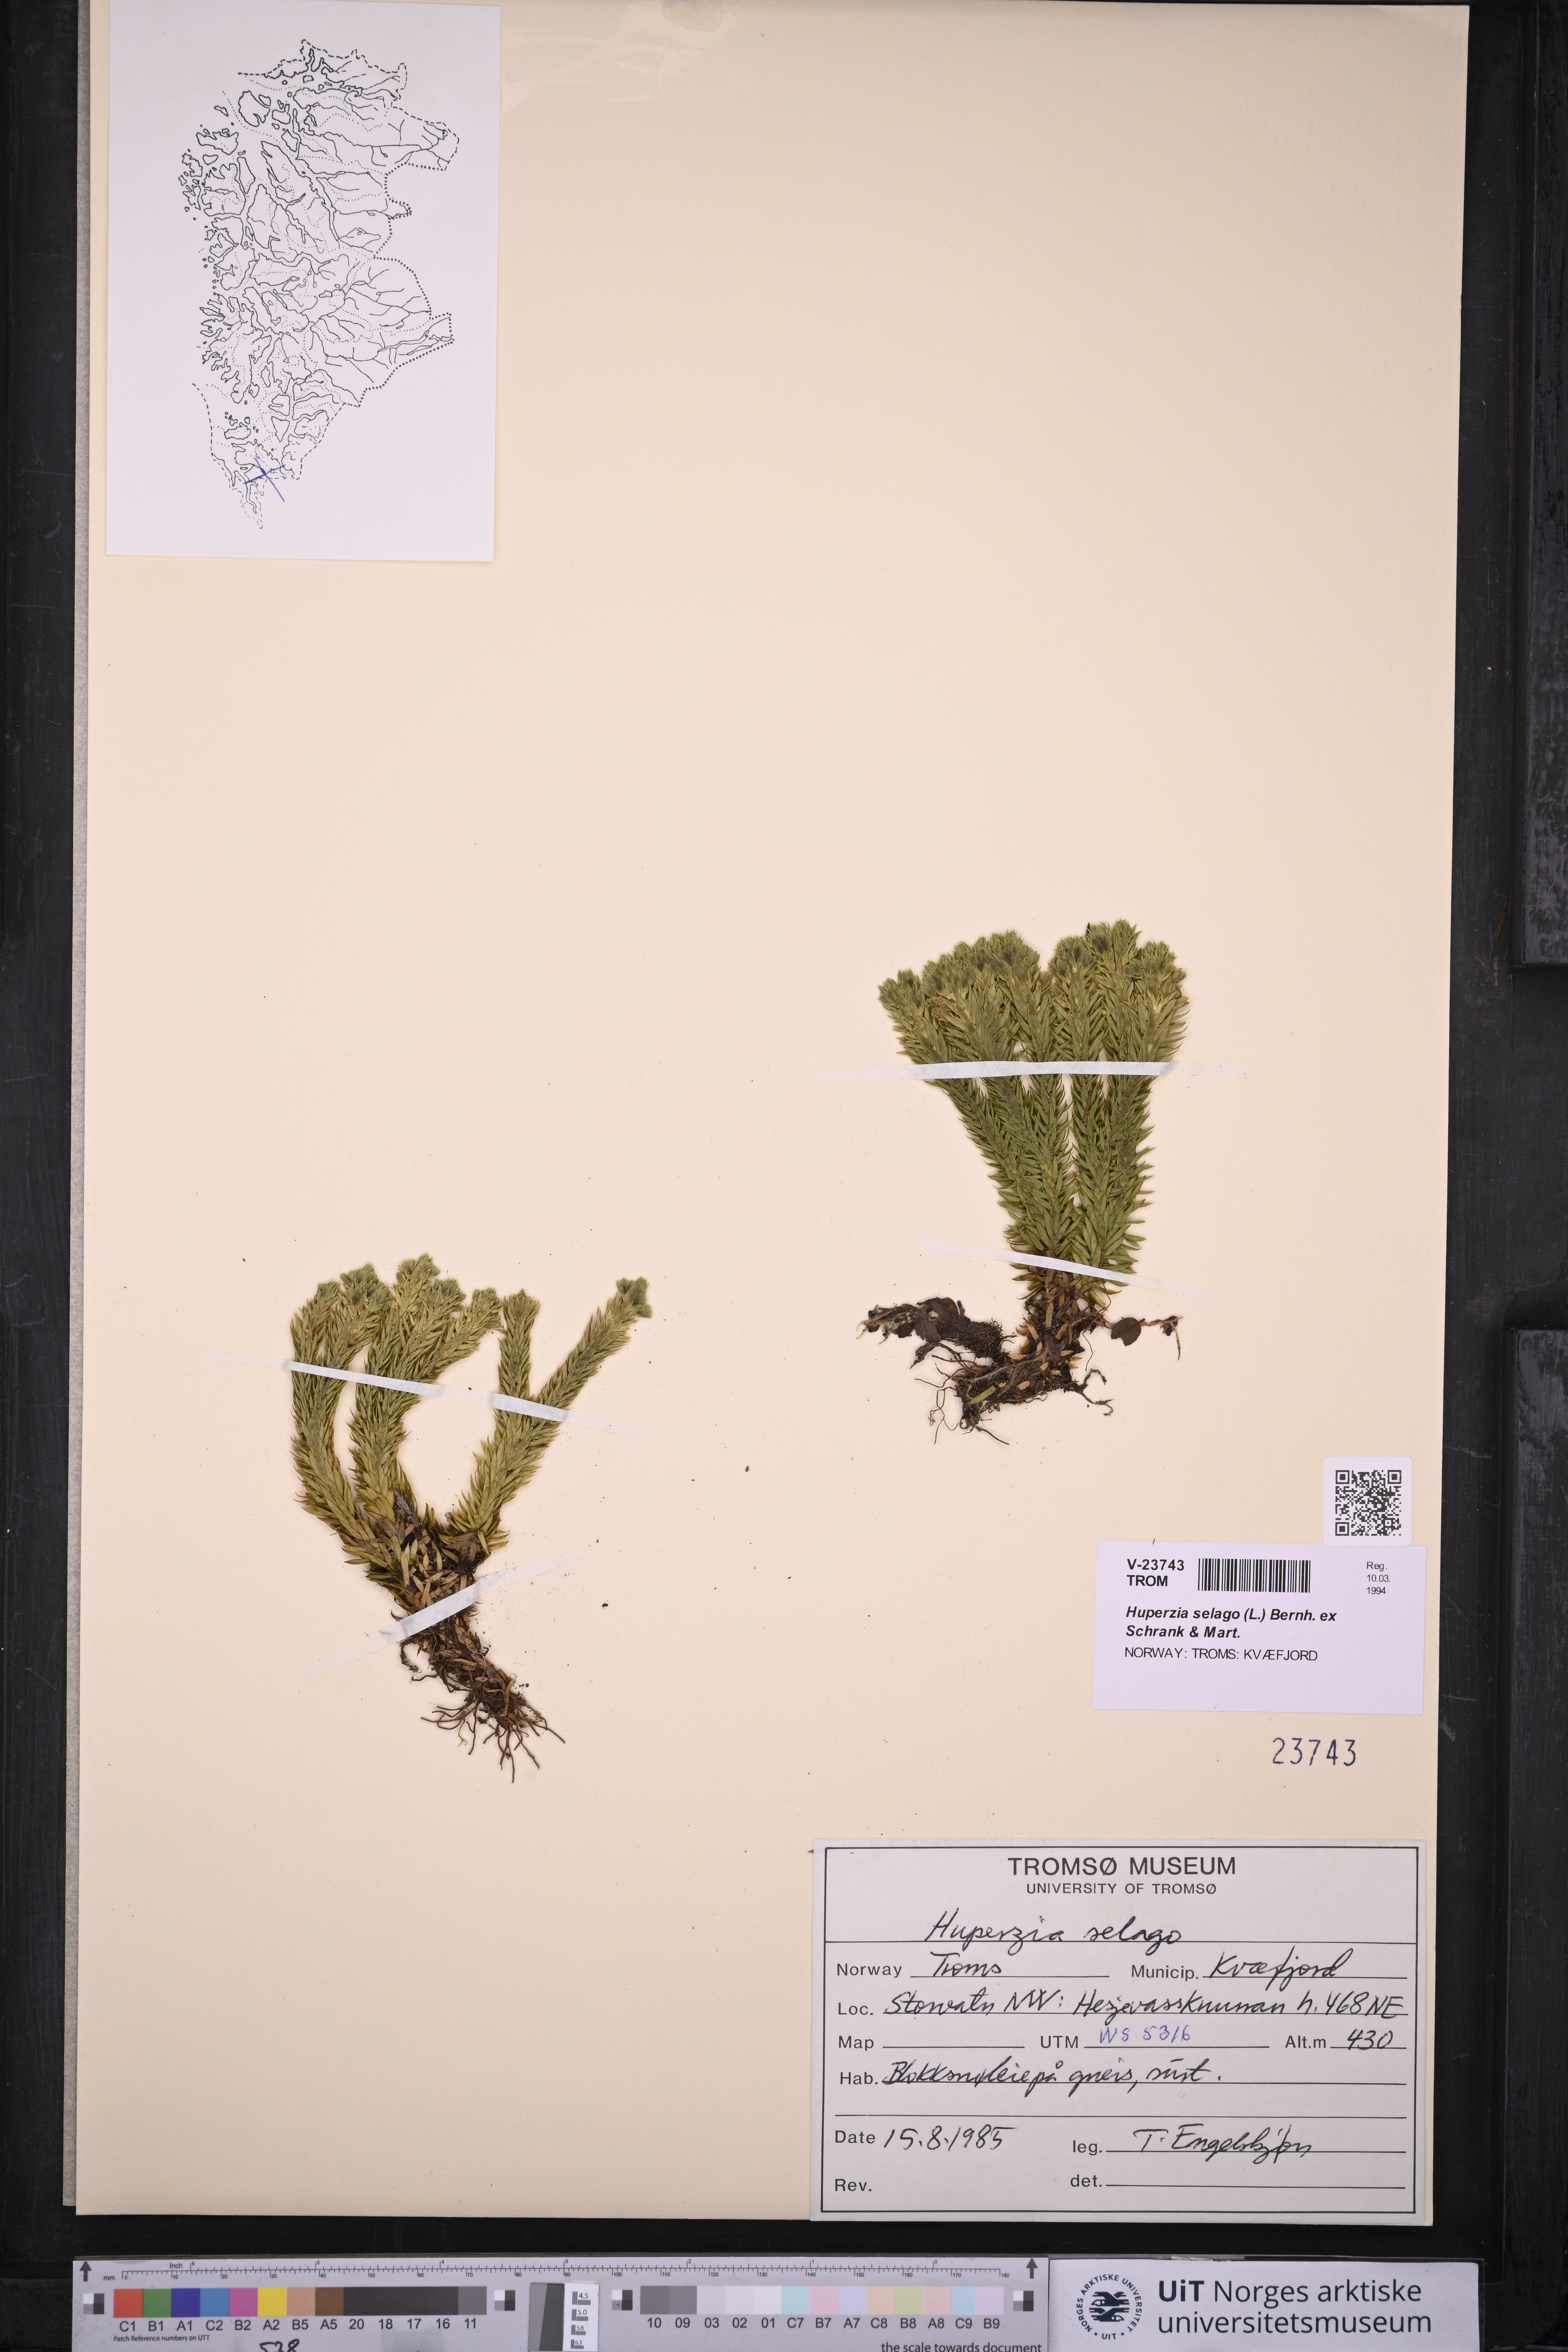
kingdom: Plantae
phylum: Tracheophyta
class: Lycopodiopsida
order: Lycopodiales
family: Lycopodiaceae
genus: Huperzia
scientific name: Huperzia selago
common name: Northern firmoss
